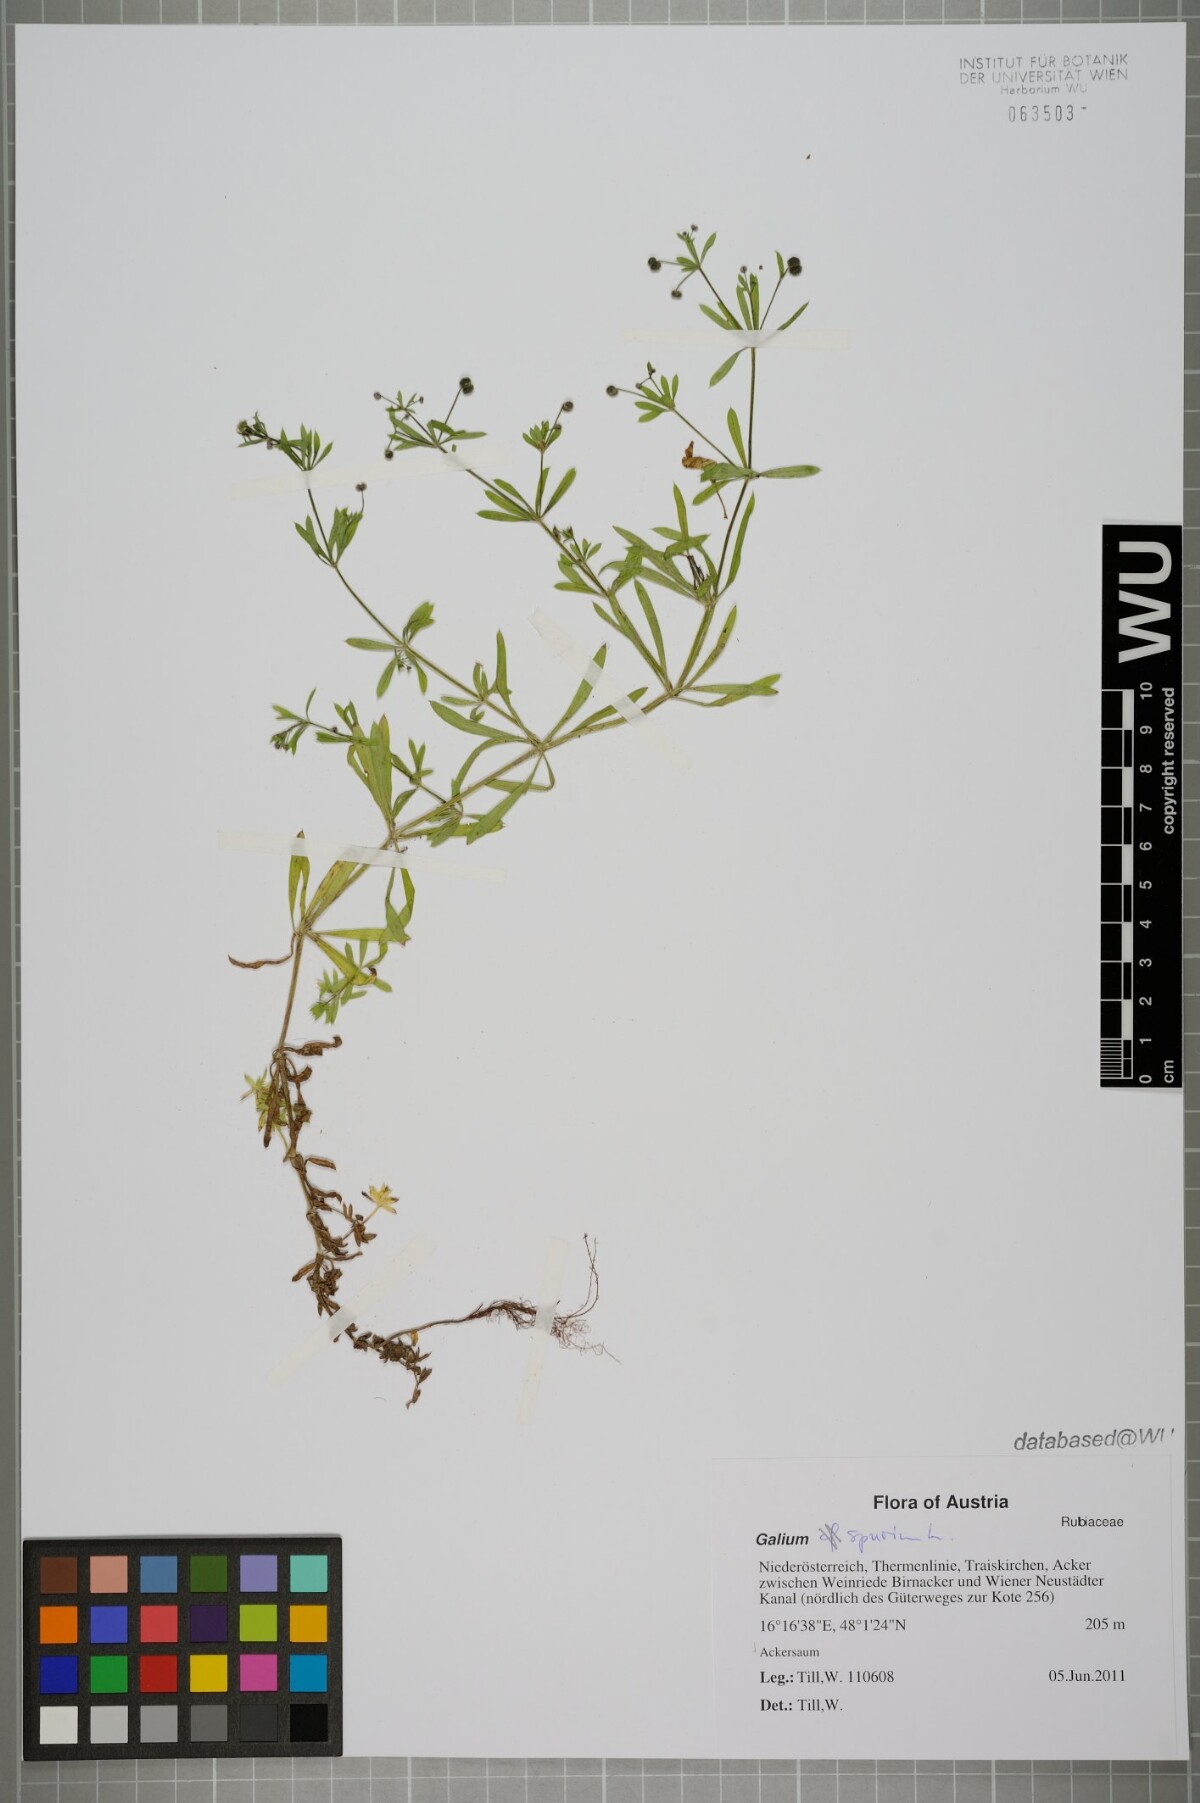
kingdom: Plantae
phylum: Tracheophyta
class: Magnoliopsida
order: Gentianales
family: Rubiaceae
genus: Galium
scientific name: Galium spurium
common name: False cleavers
